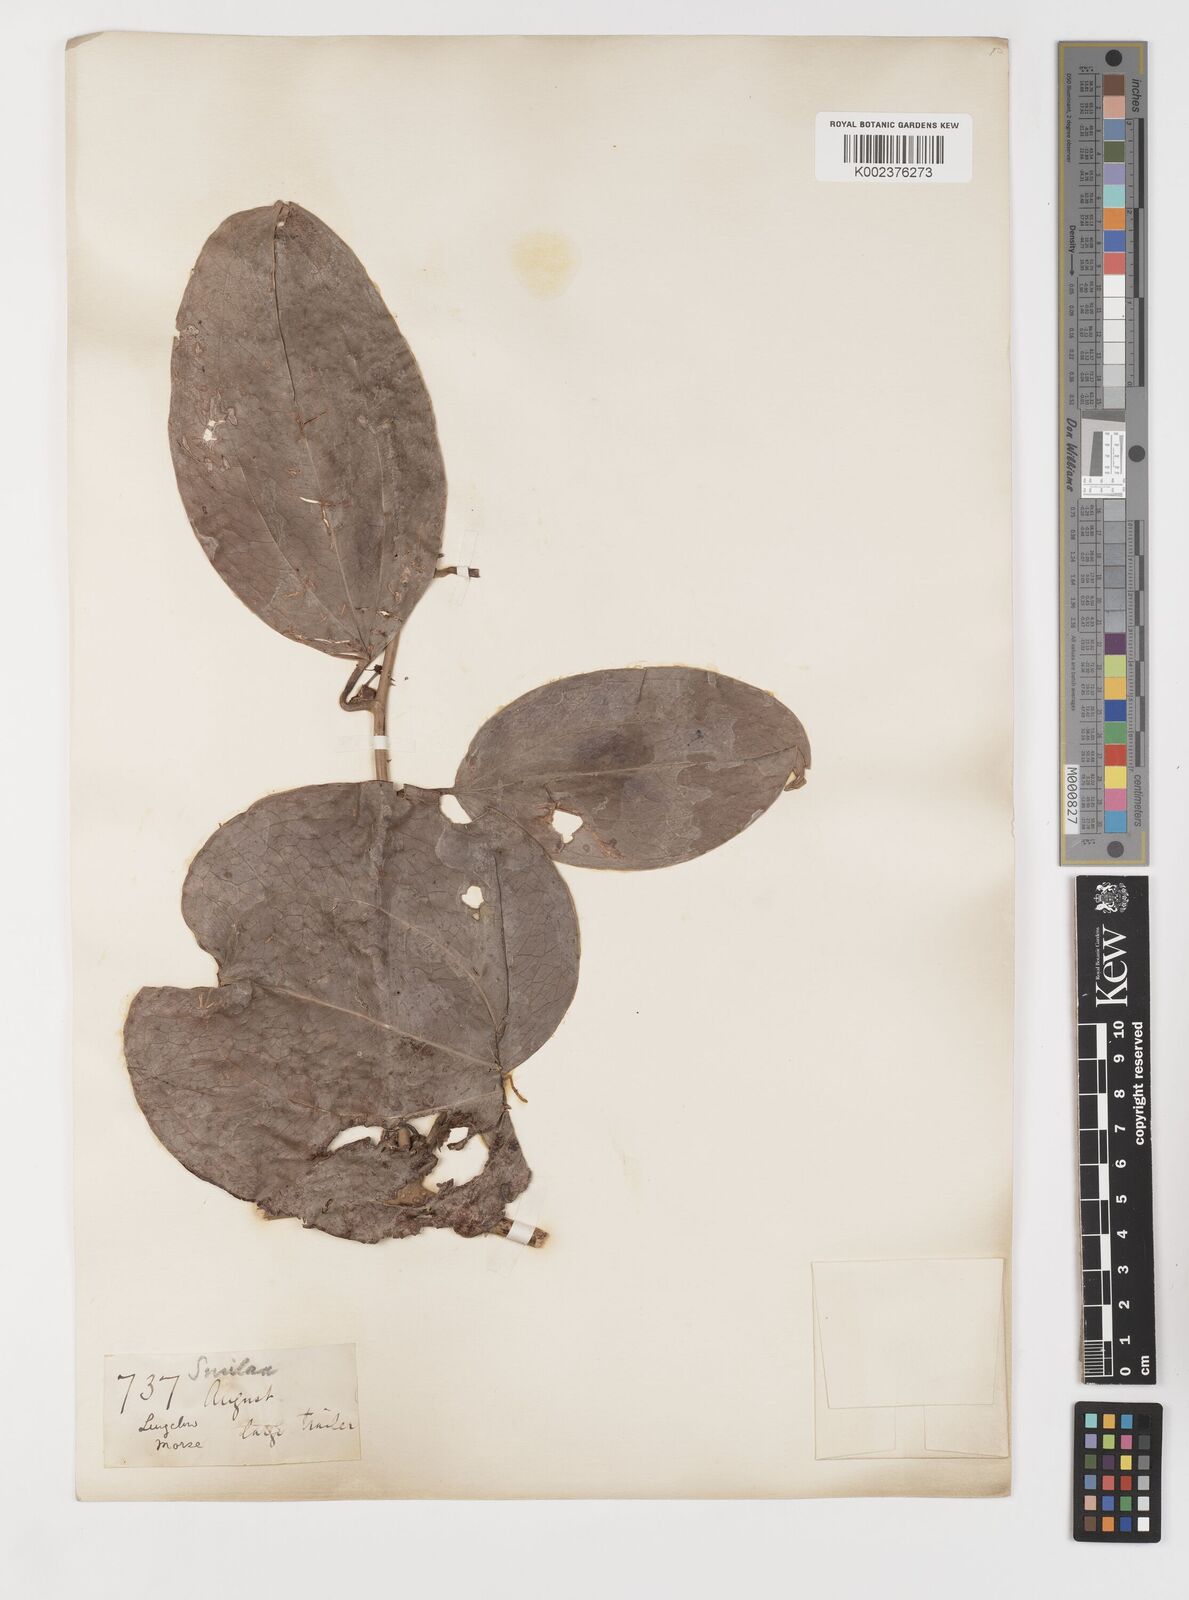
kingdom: Plantae
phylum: Tracheophyta
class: Liliopsida
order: Liliales
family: Smilacaceae
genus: Smilax
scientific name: Smilax megacarpa
